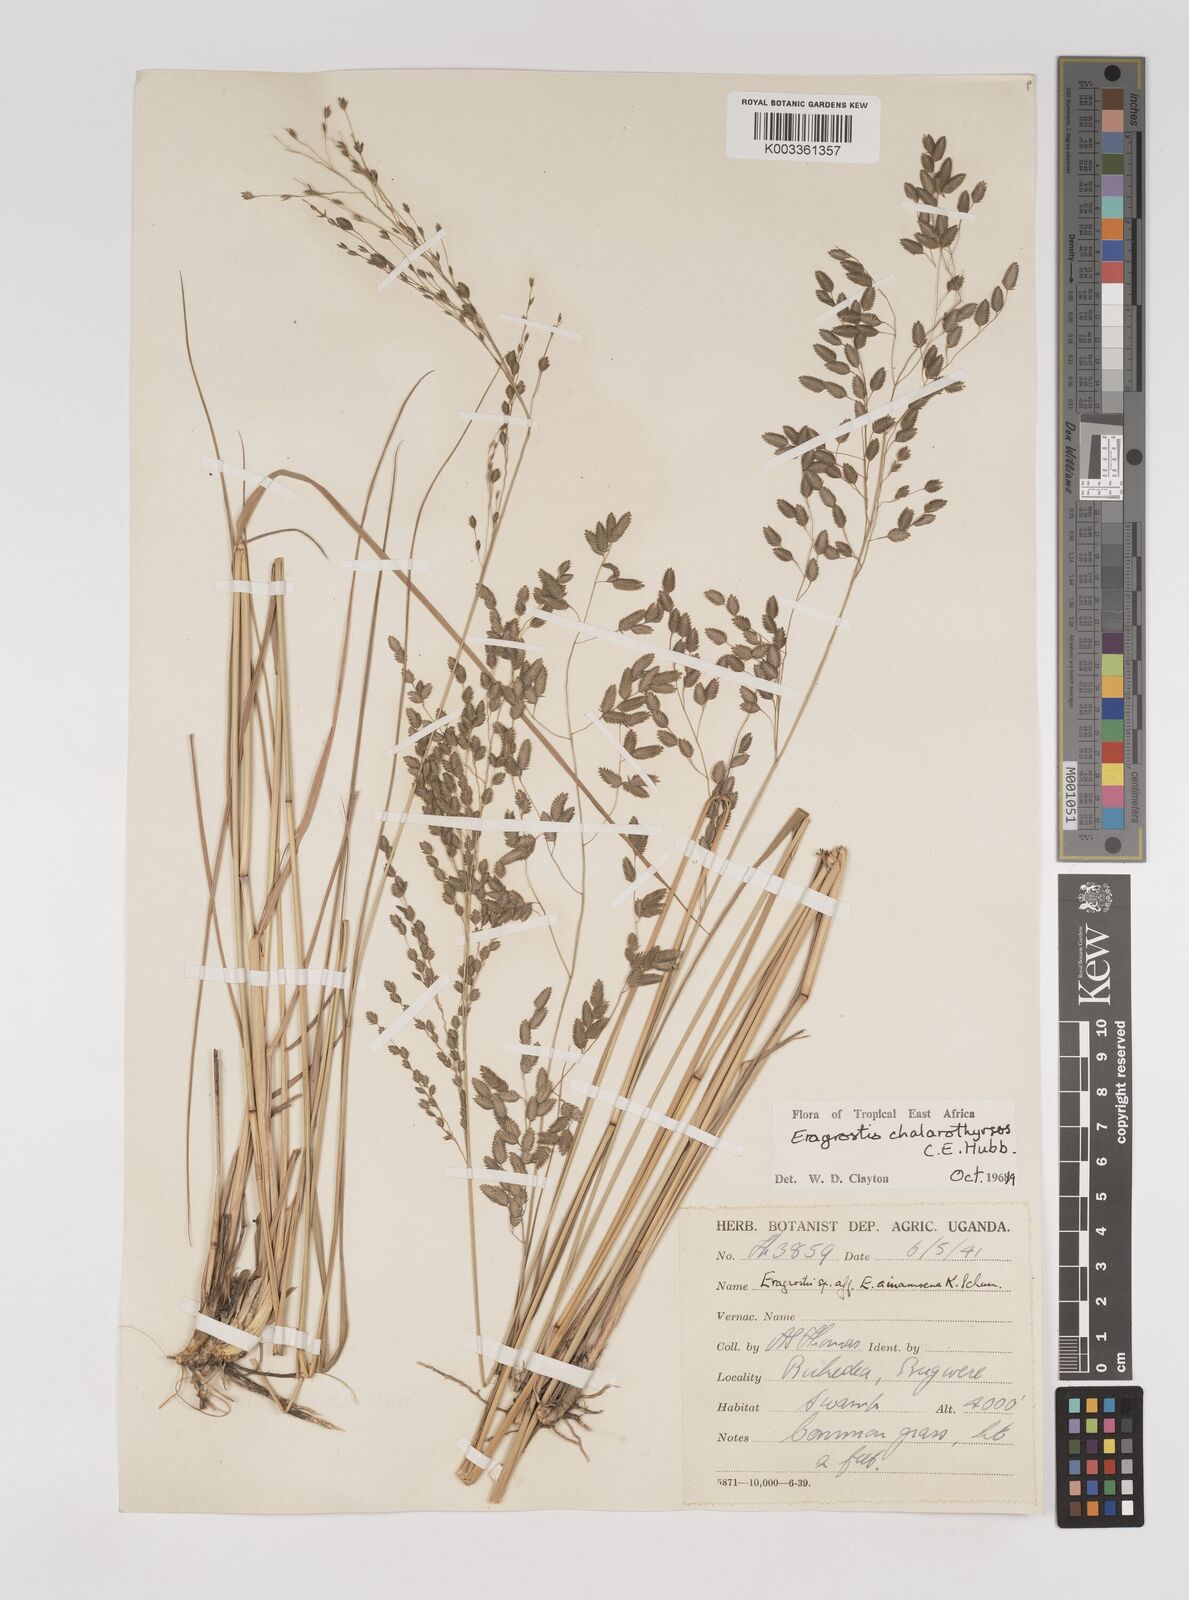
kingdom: Plantae
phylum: Tracheophyta
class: Liliopsida
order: Poales
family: Poaceae
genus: Eragrostis
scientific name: Eragrostis chalarothyrsos
